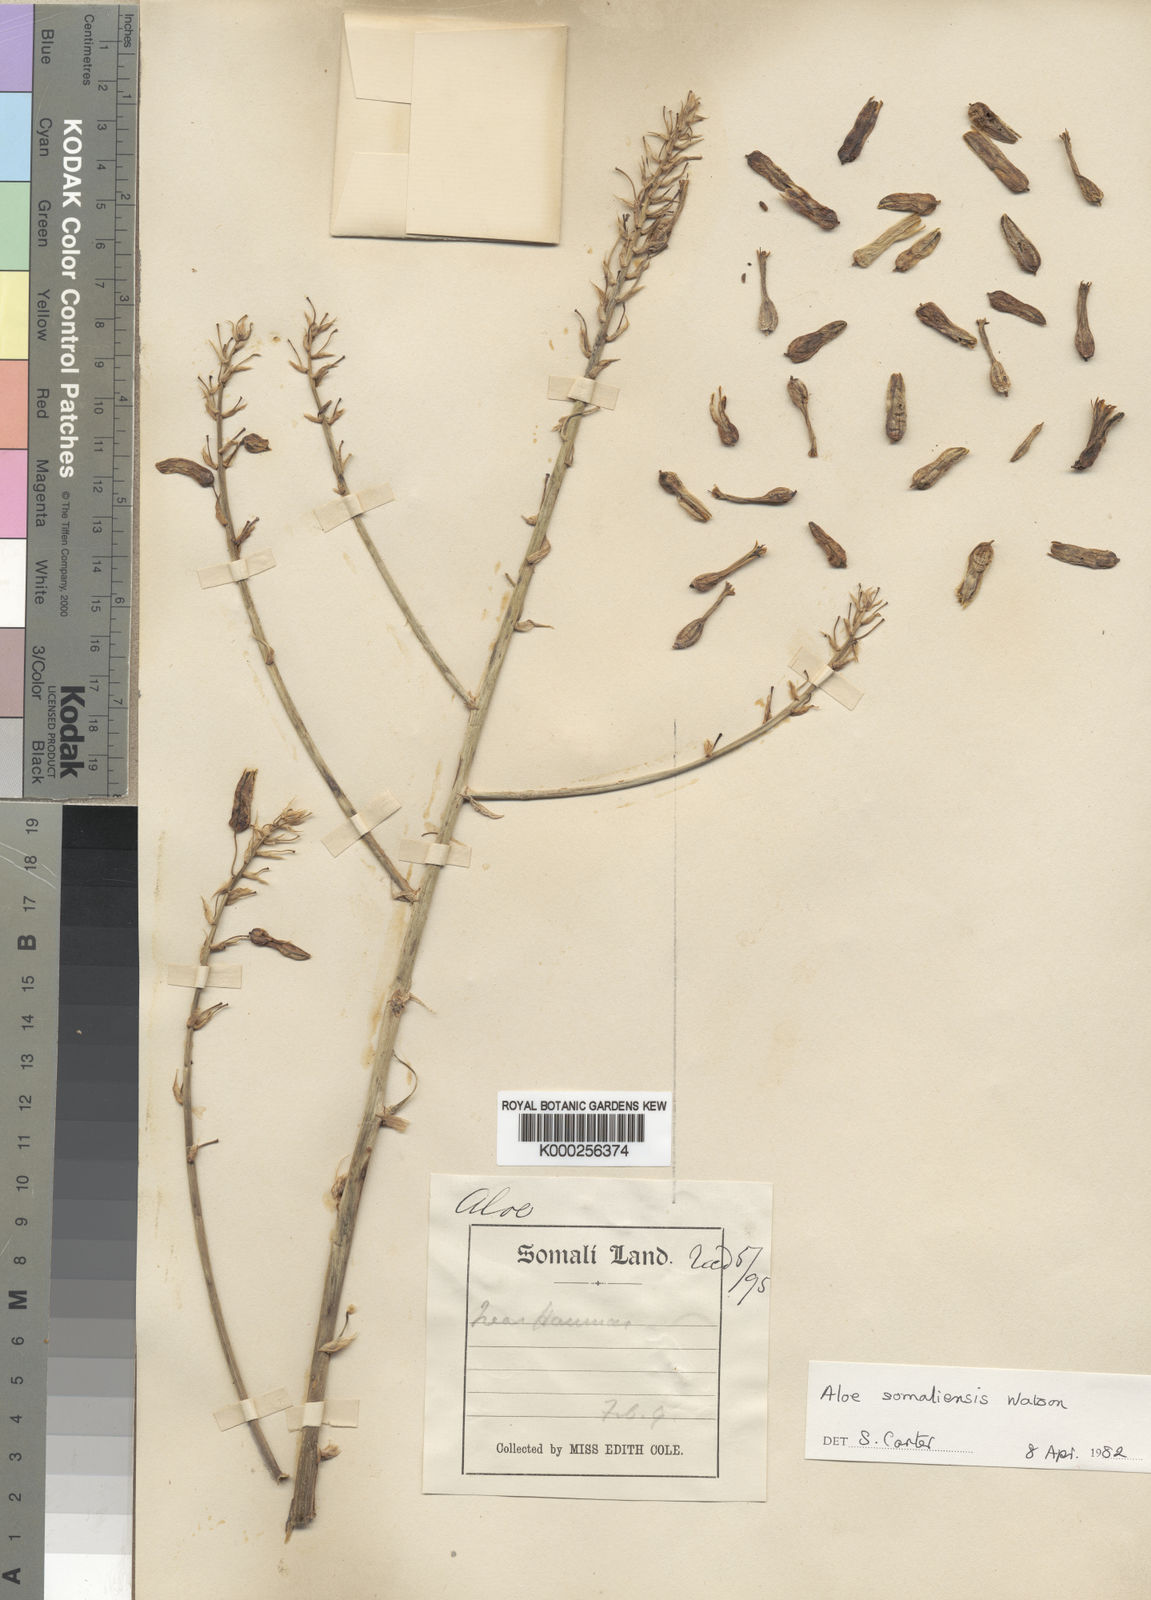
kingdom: Plantae
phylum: Tracheophyta
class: Liliopsida
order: Asparagales
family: Asphodelaceae
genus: Aloe
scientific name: Aloe somaliensis
